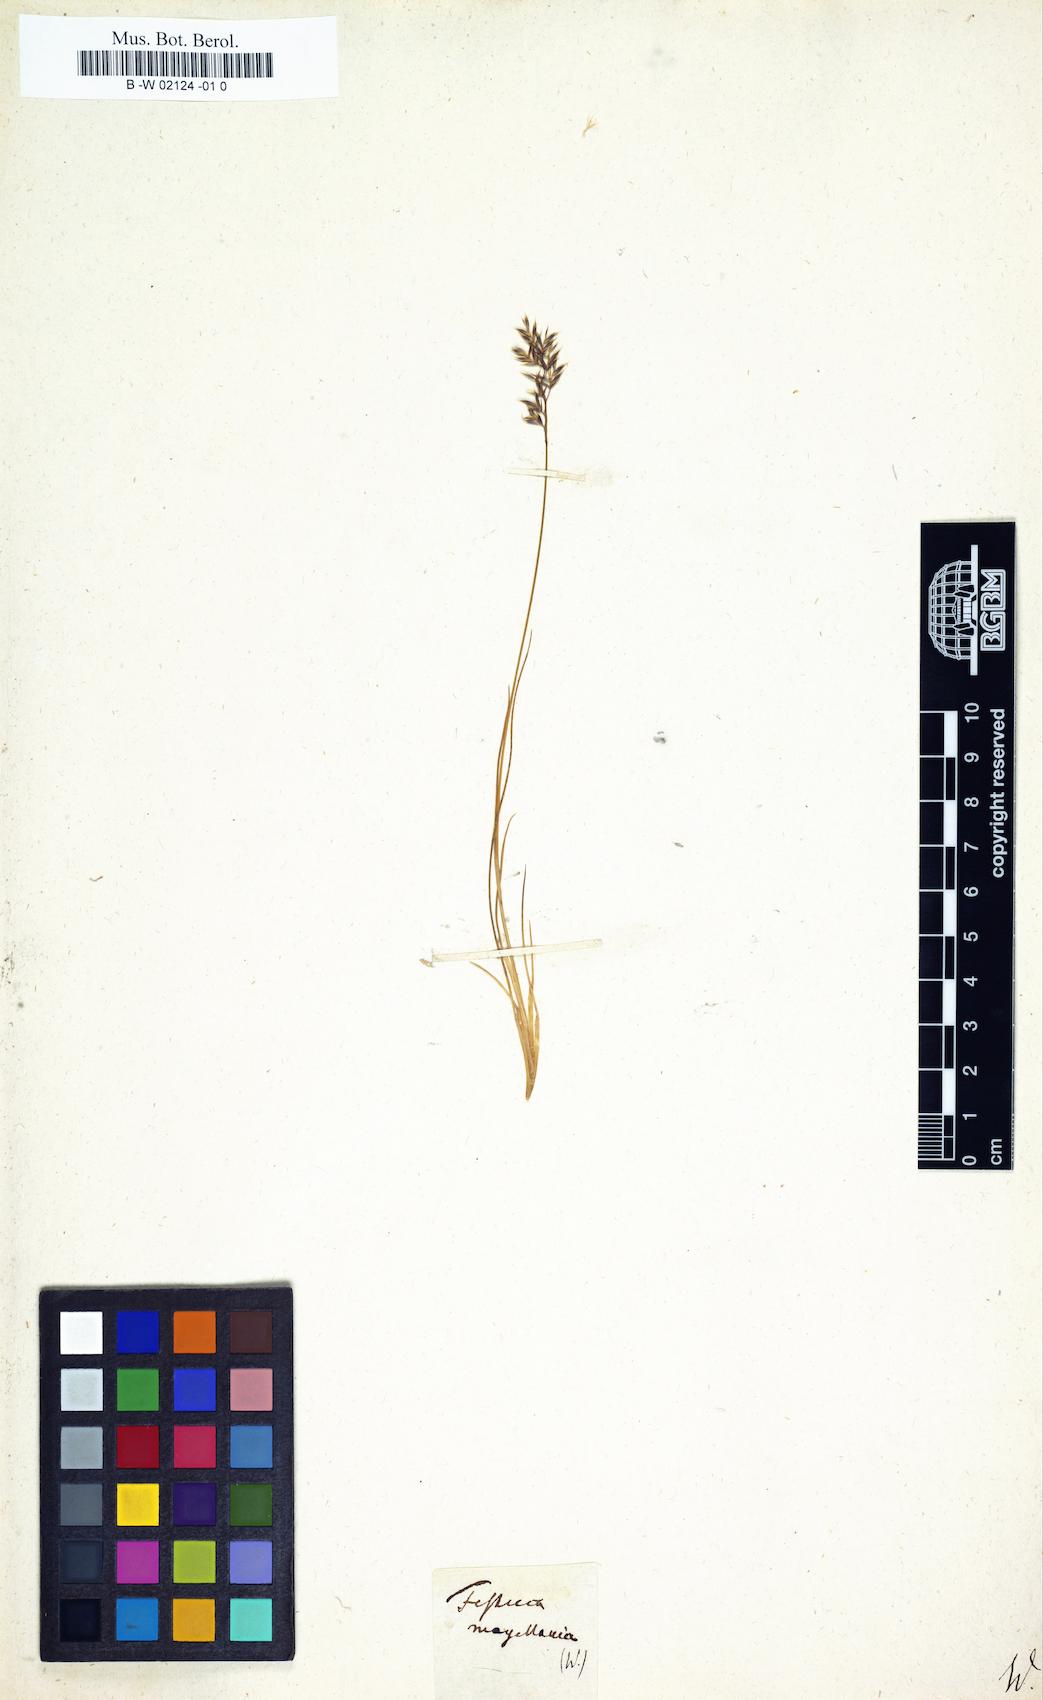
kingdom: Plantae
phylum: Tracheophyta
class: Liliopsida
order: Poales
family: Poaceae
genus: Festuca
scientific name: Festuca magellanica
